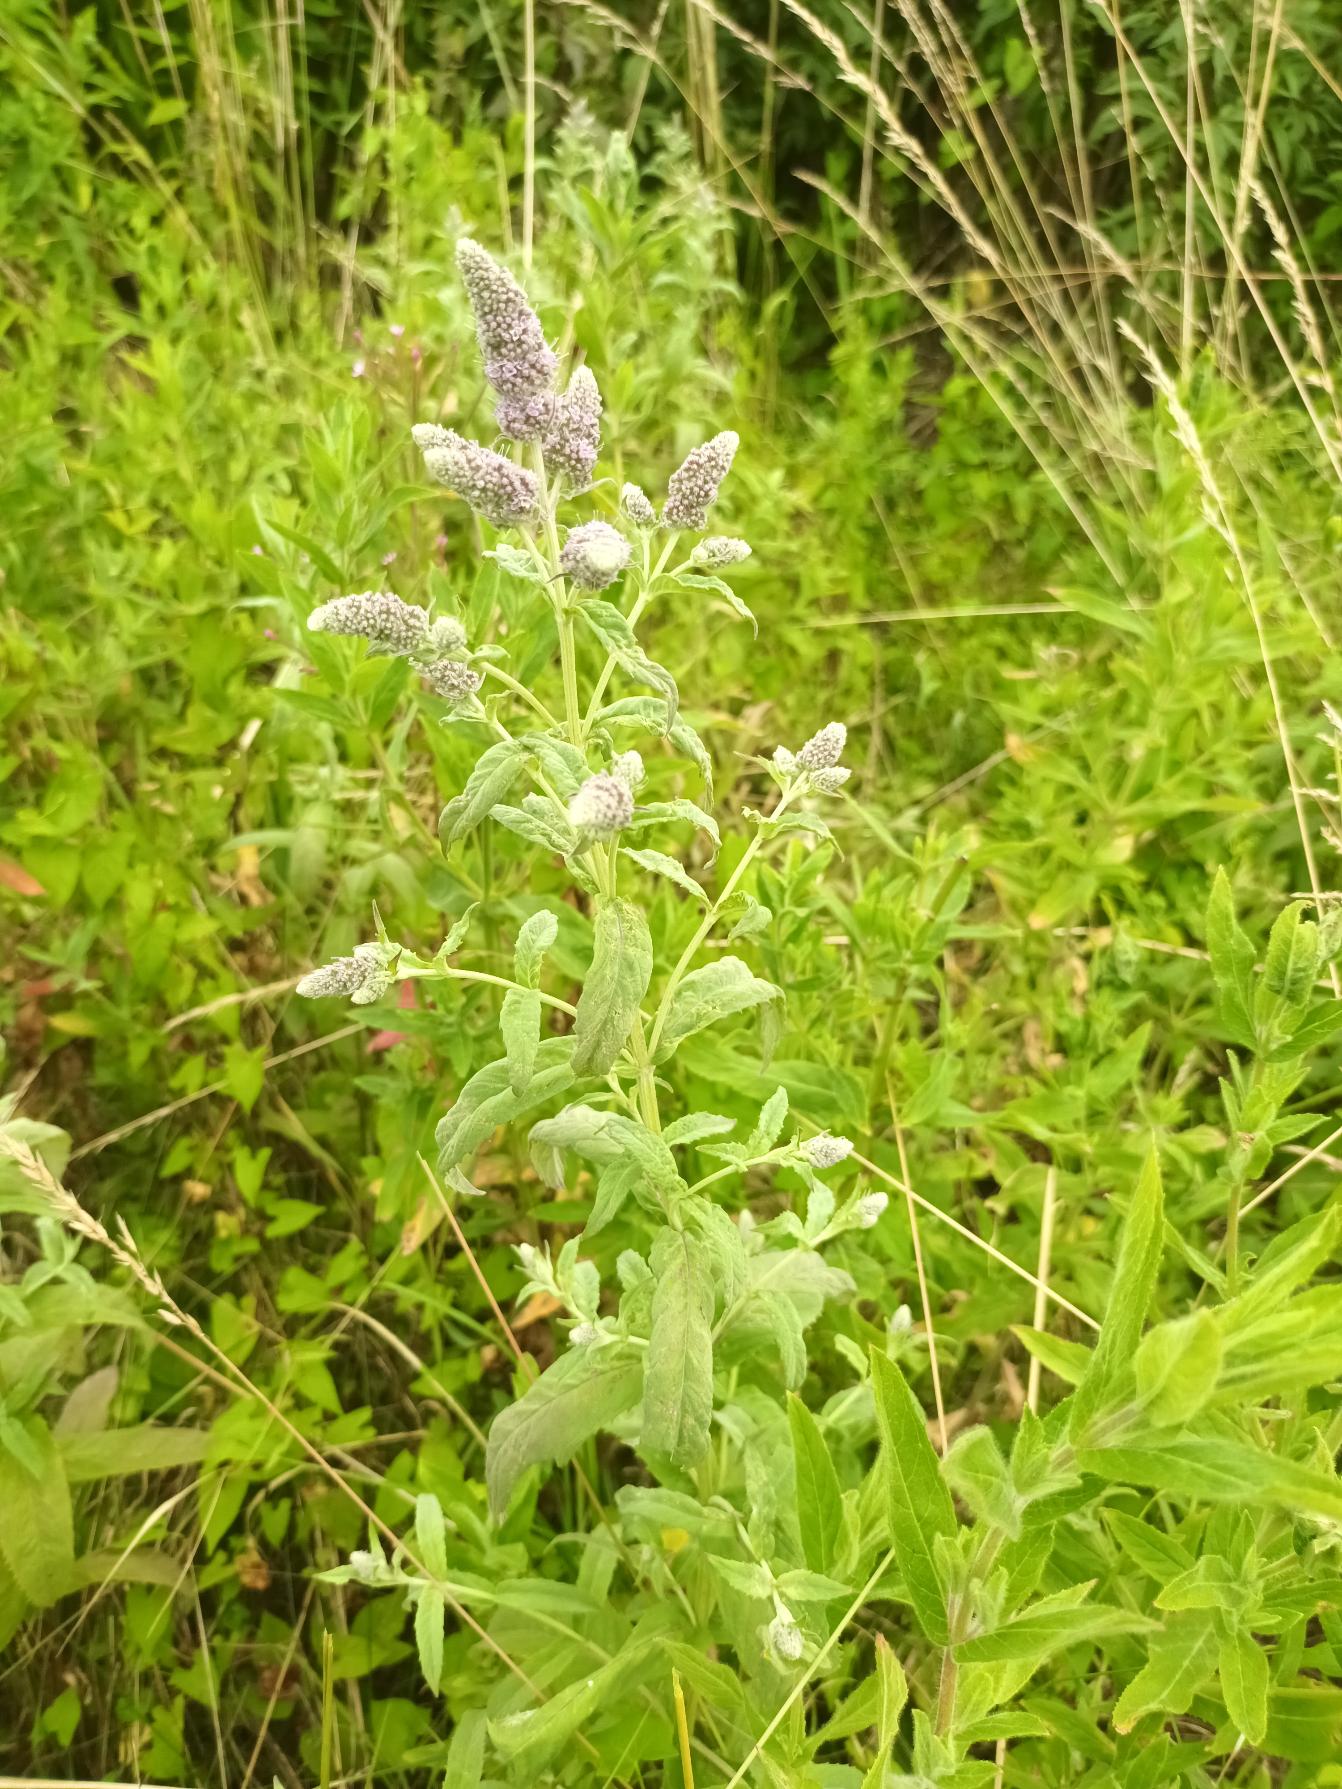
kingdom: Plantae
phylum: Tracheophyta
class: Magnoliopsida
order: Lamiales
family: Lamiaceae
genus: Mentha
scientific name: Mentha
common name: Grå mynte × grøn mynte
